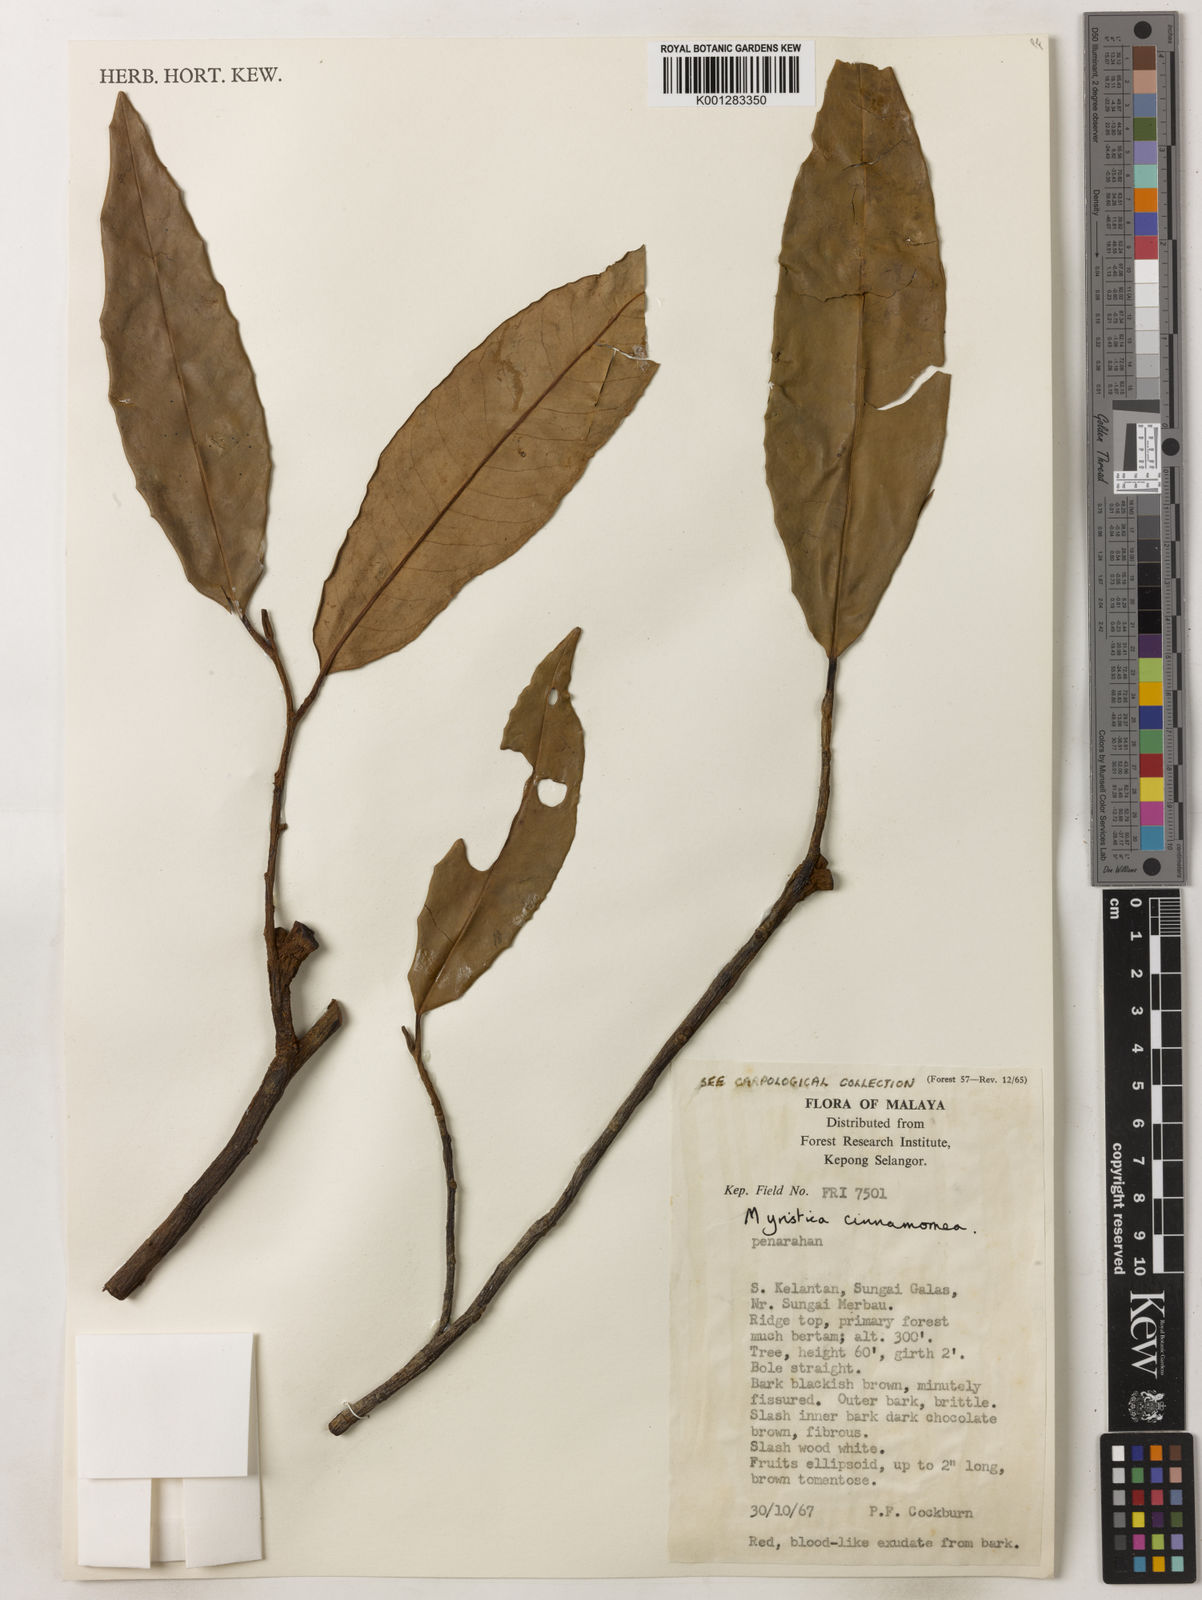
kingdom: Plantae
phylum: Tracheophyta
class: Magnoliopsida
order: Magnoliales
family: Myristicaceae
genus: Myristica
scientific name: Myristica cinnamomea
